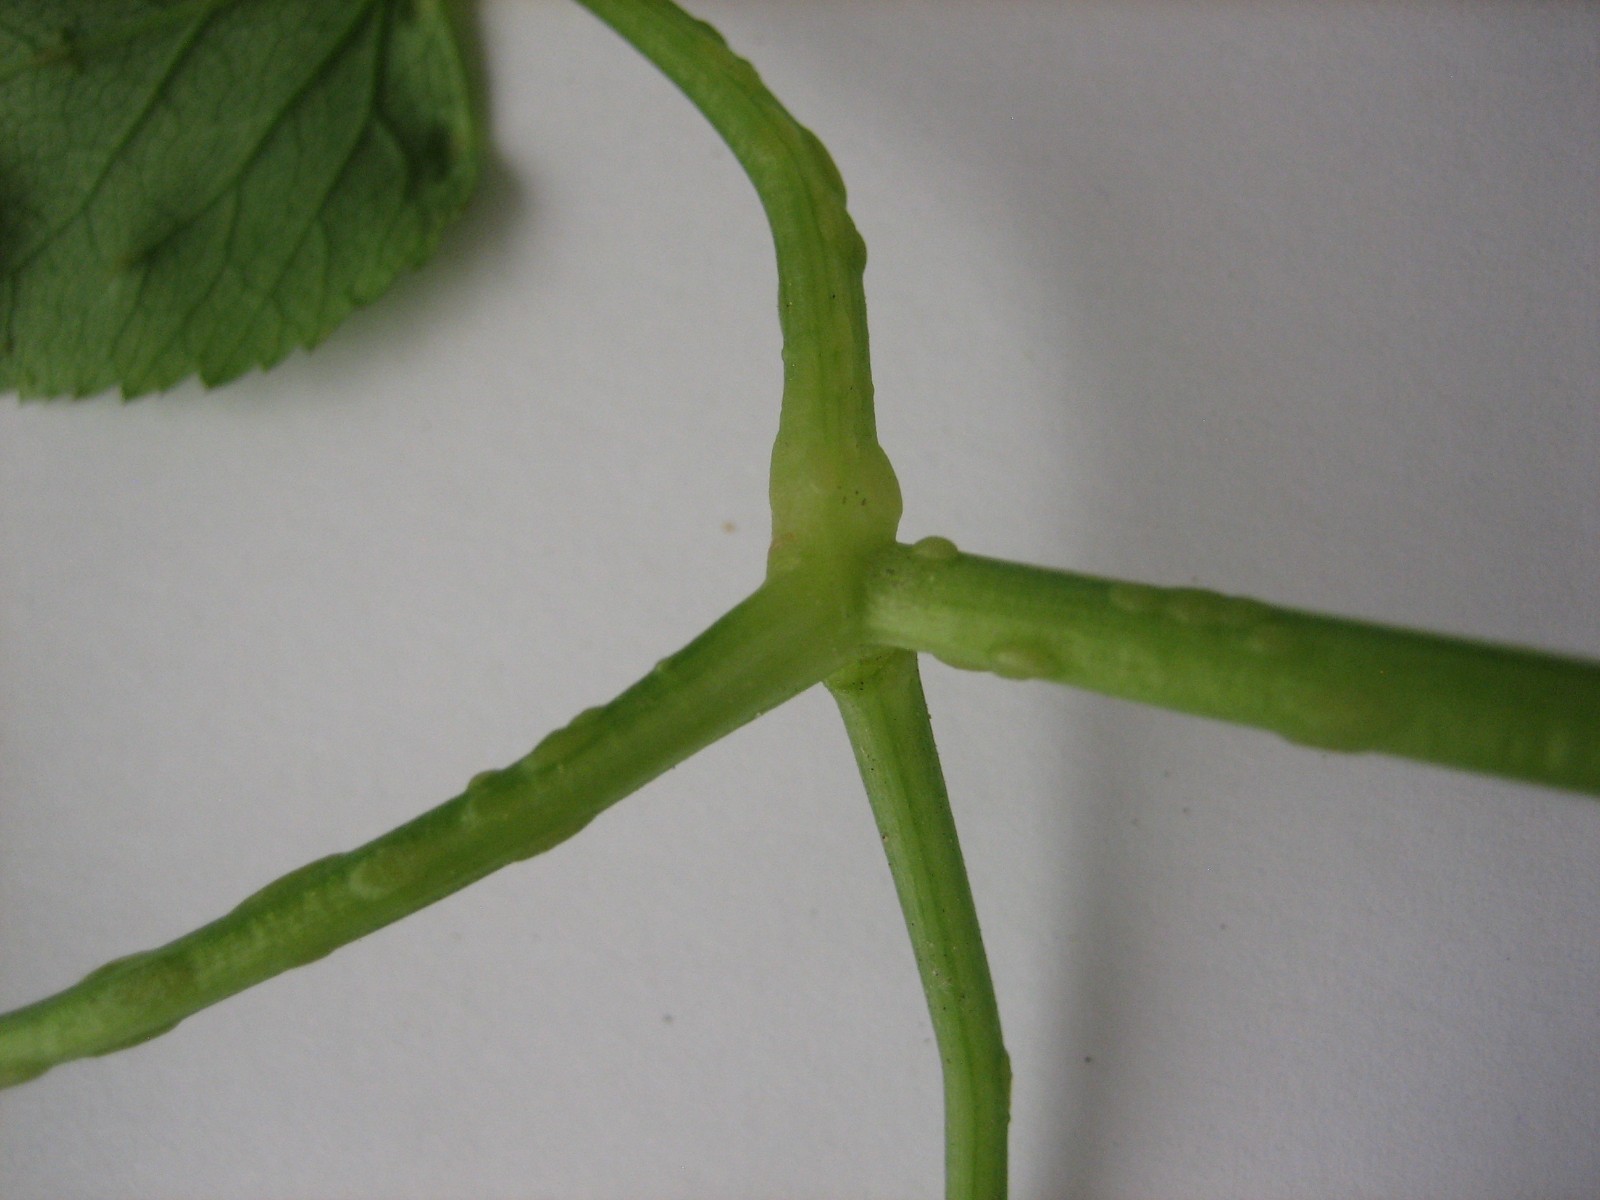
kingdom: Fungi
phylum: Ascomycota
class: Taphrinomycetes
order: Taphrinales
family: Taphrinaceae
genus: Protomyces
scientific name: Protomyces macrosporus
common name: skvalderkål-vablesæk
